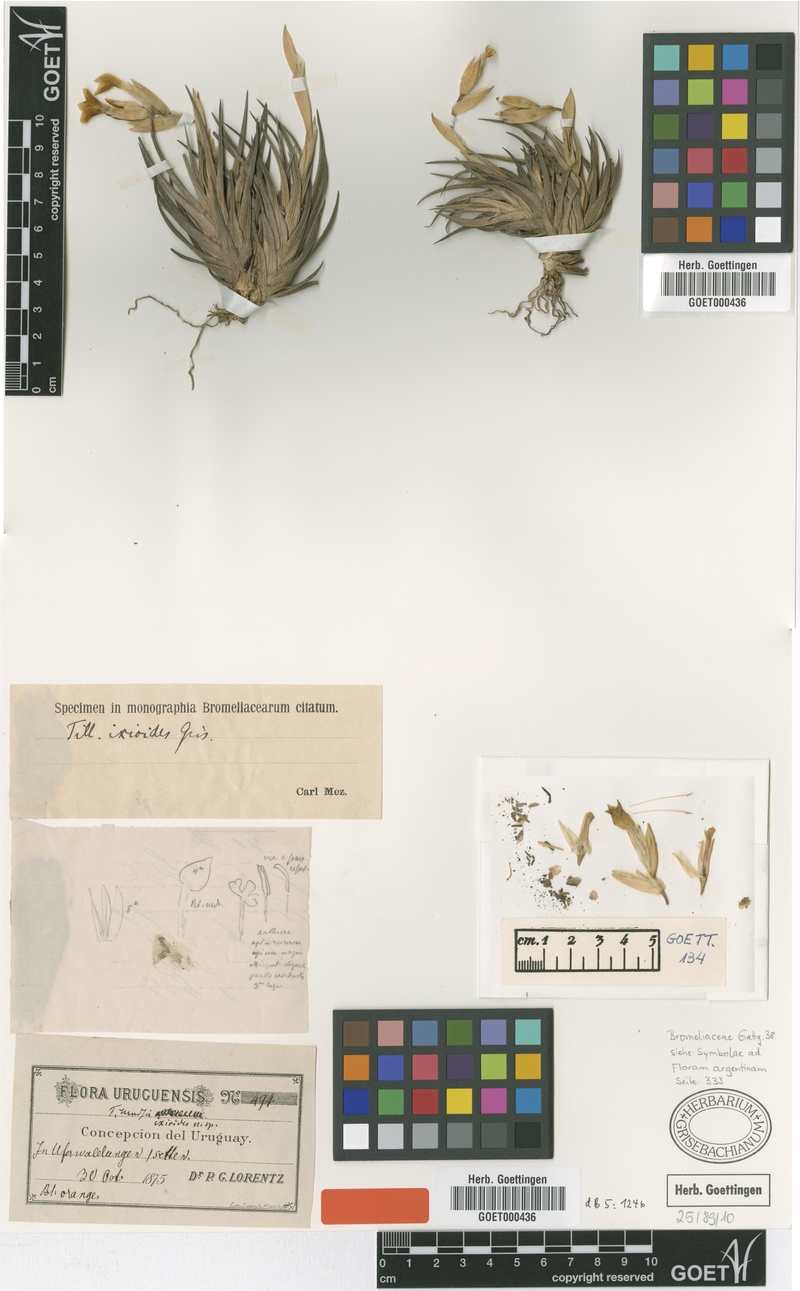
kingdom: Plantae
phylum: Tracheophyta
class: Liliopsida
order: Poales
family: Bromeliaceae
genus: Tillandsia
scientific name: Tillandsia ixioides
